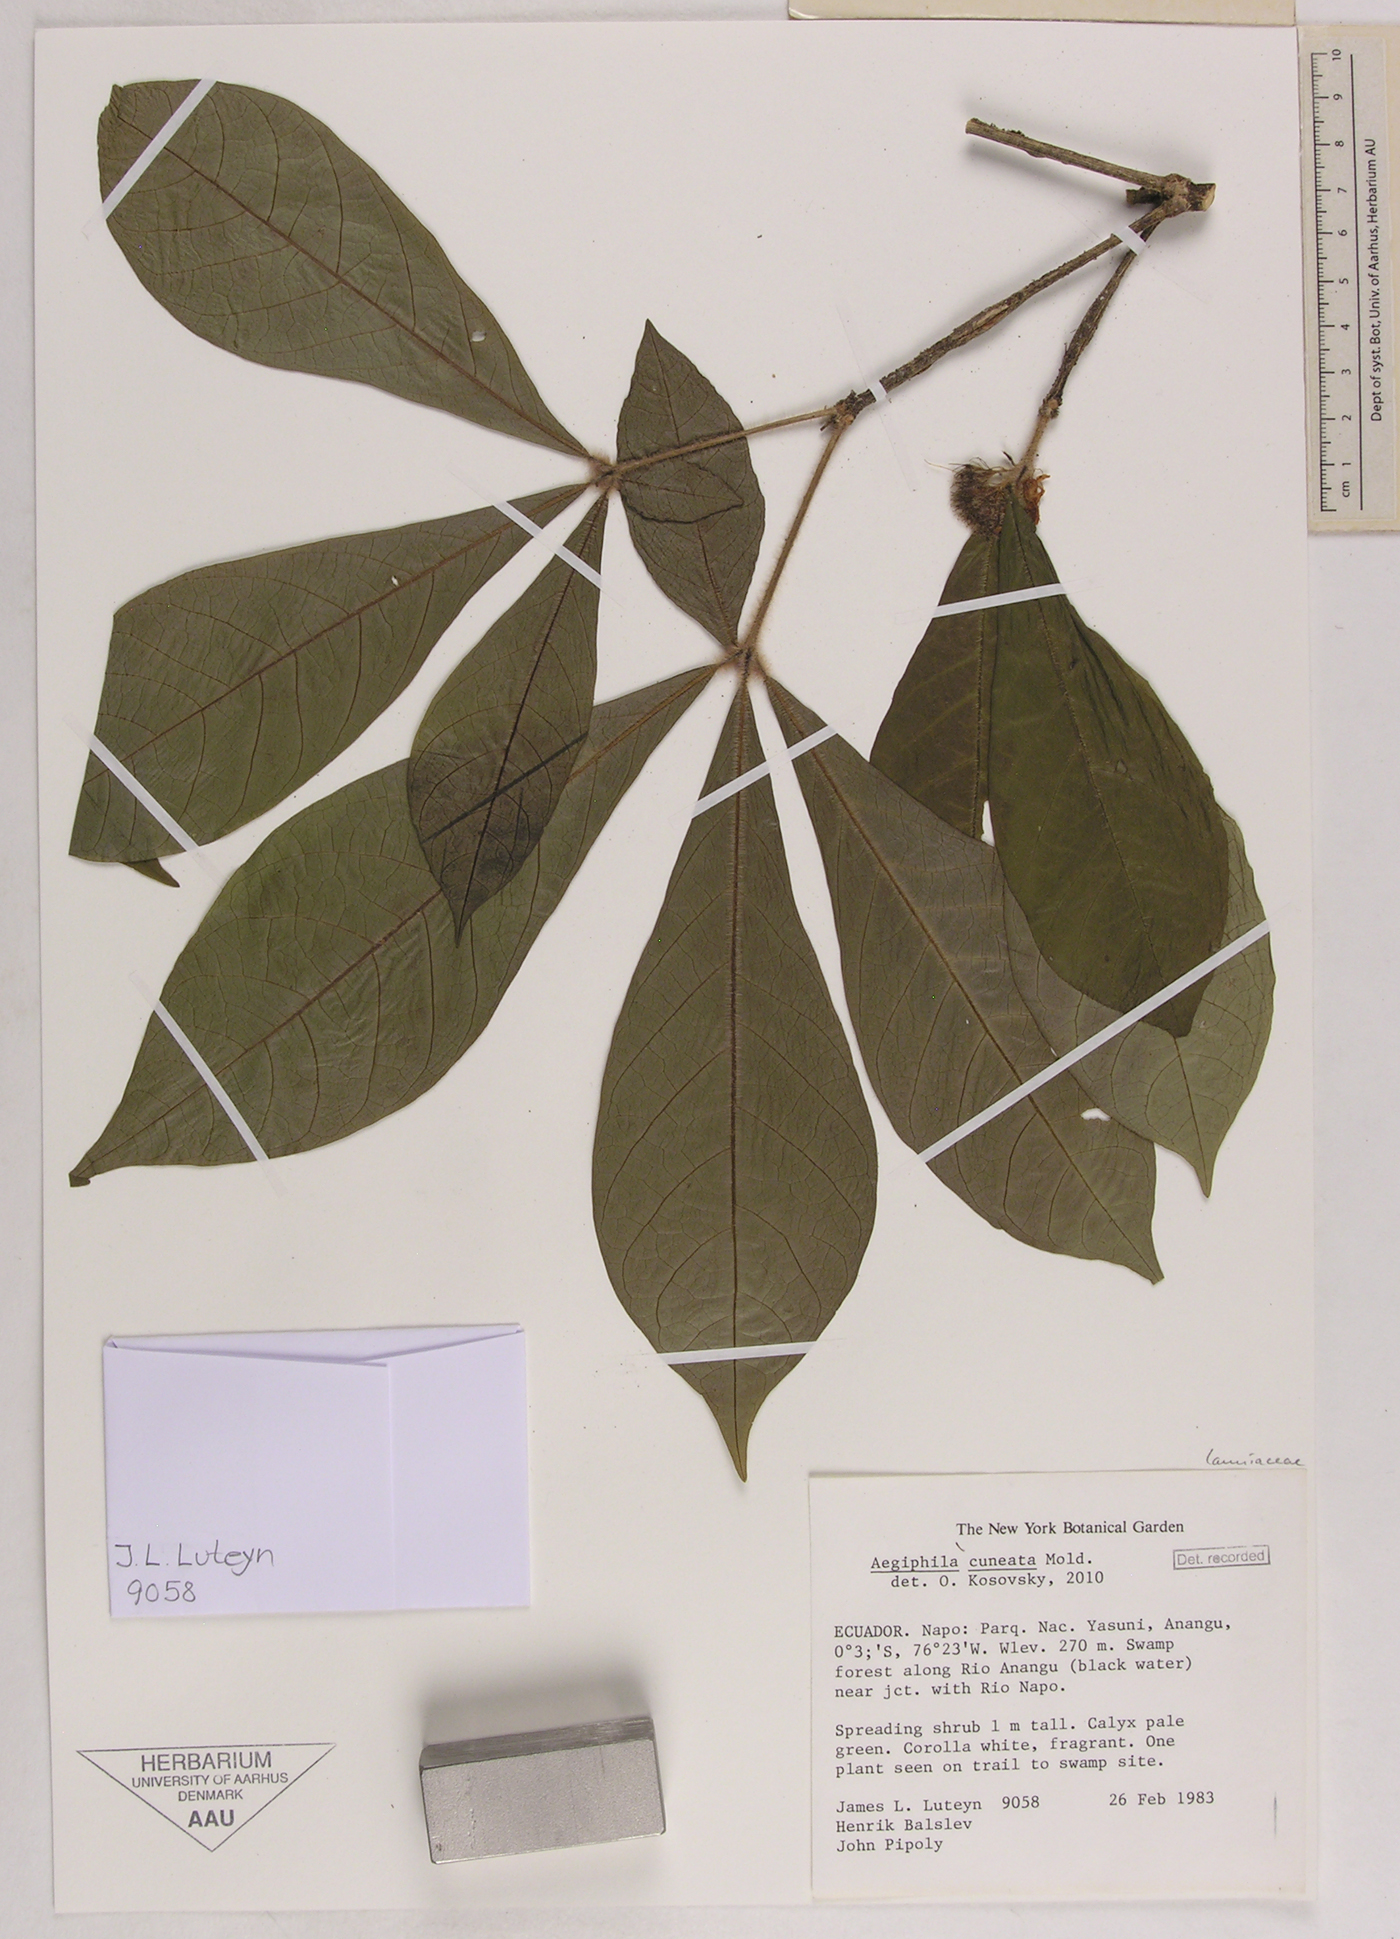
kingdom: Plantae
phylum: Tracheophyta
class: Magnoliopsida
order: Lamiales
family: Lamiaceae
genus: Aegiphila
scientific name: Aegiphila cuneata
